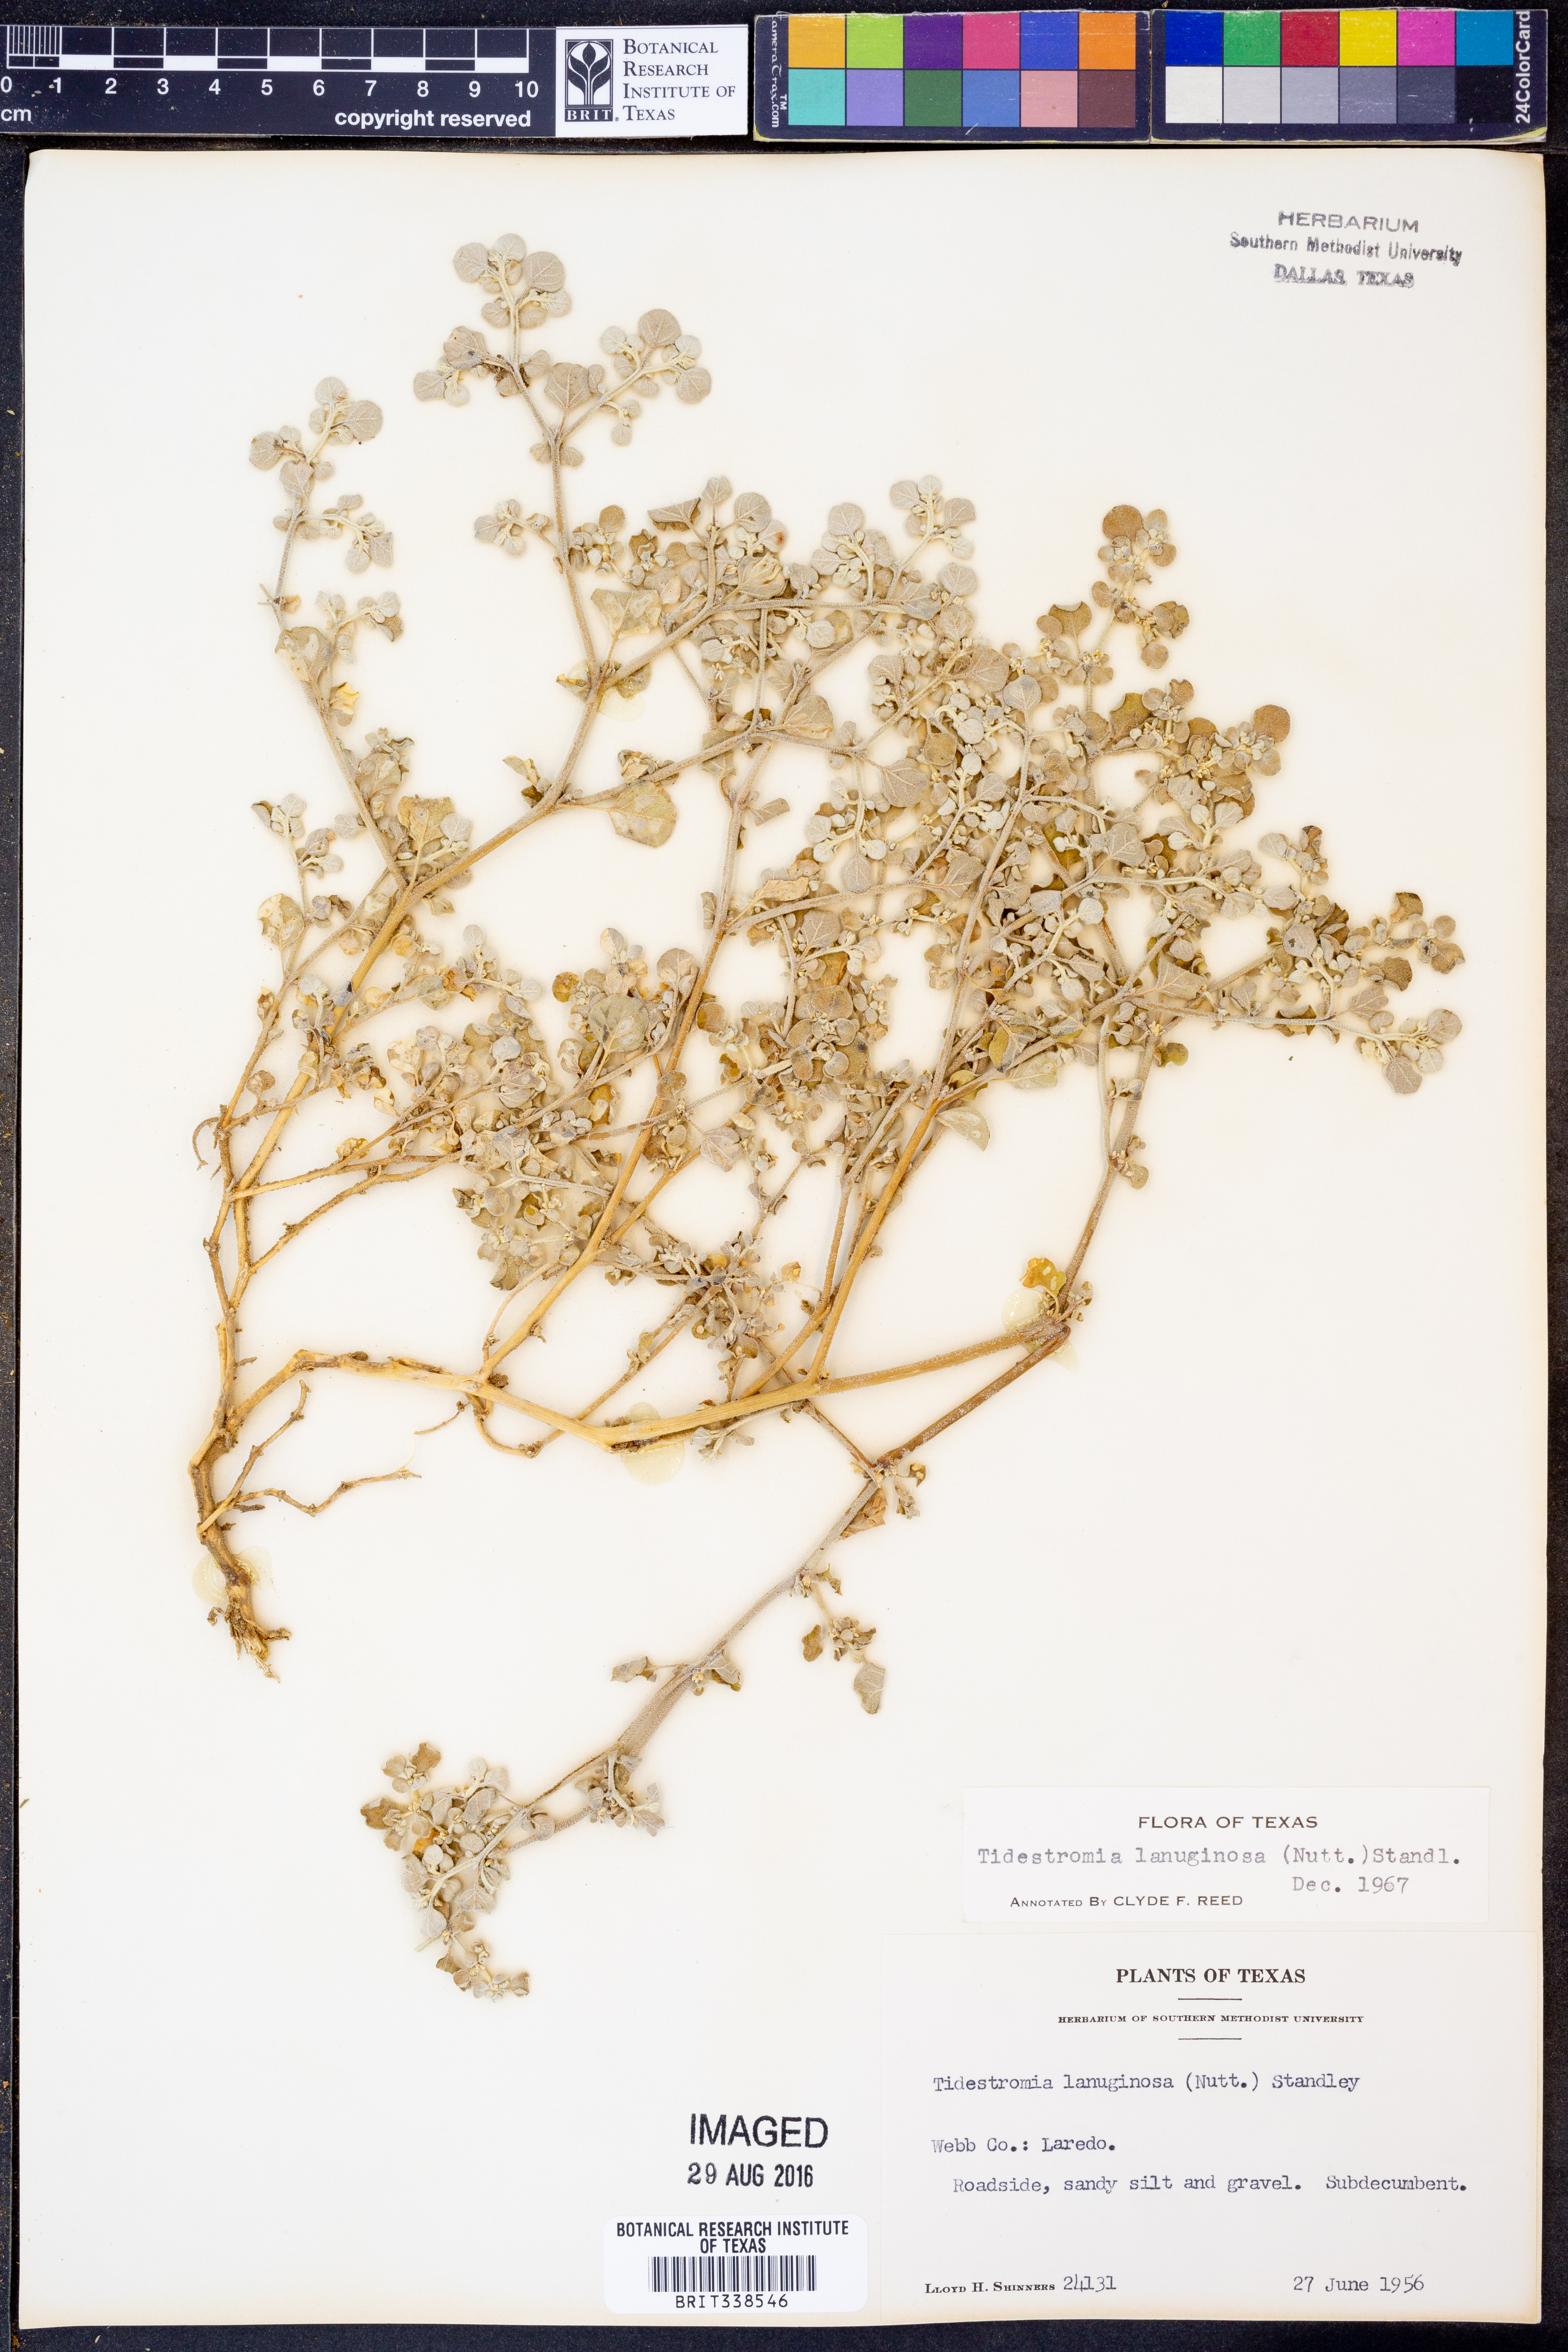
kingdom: Plantae
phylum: Tracheophyta
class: Magnoliopsida
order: Caryophyllales
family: Amaranthaceae
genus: Tidestromia
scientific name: Tidestromia lanuginosa
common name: Woolly tidestromia
